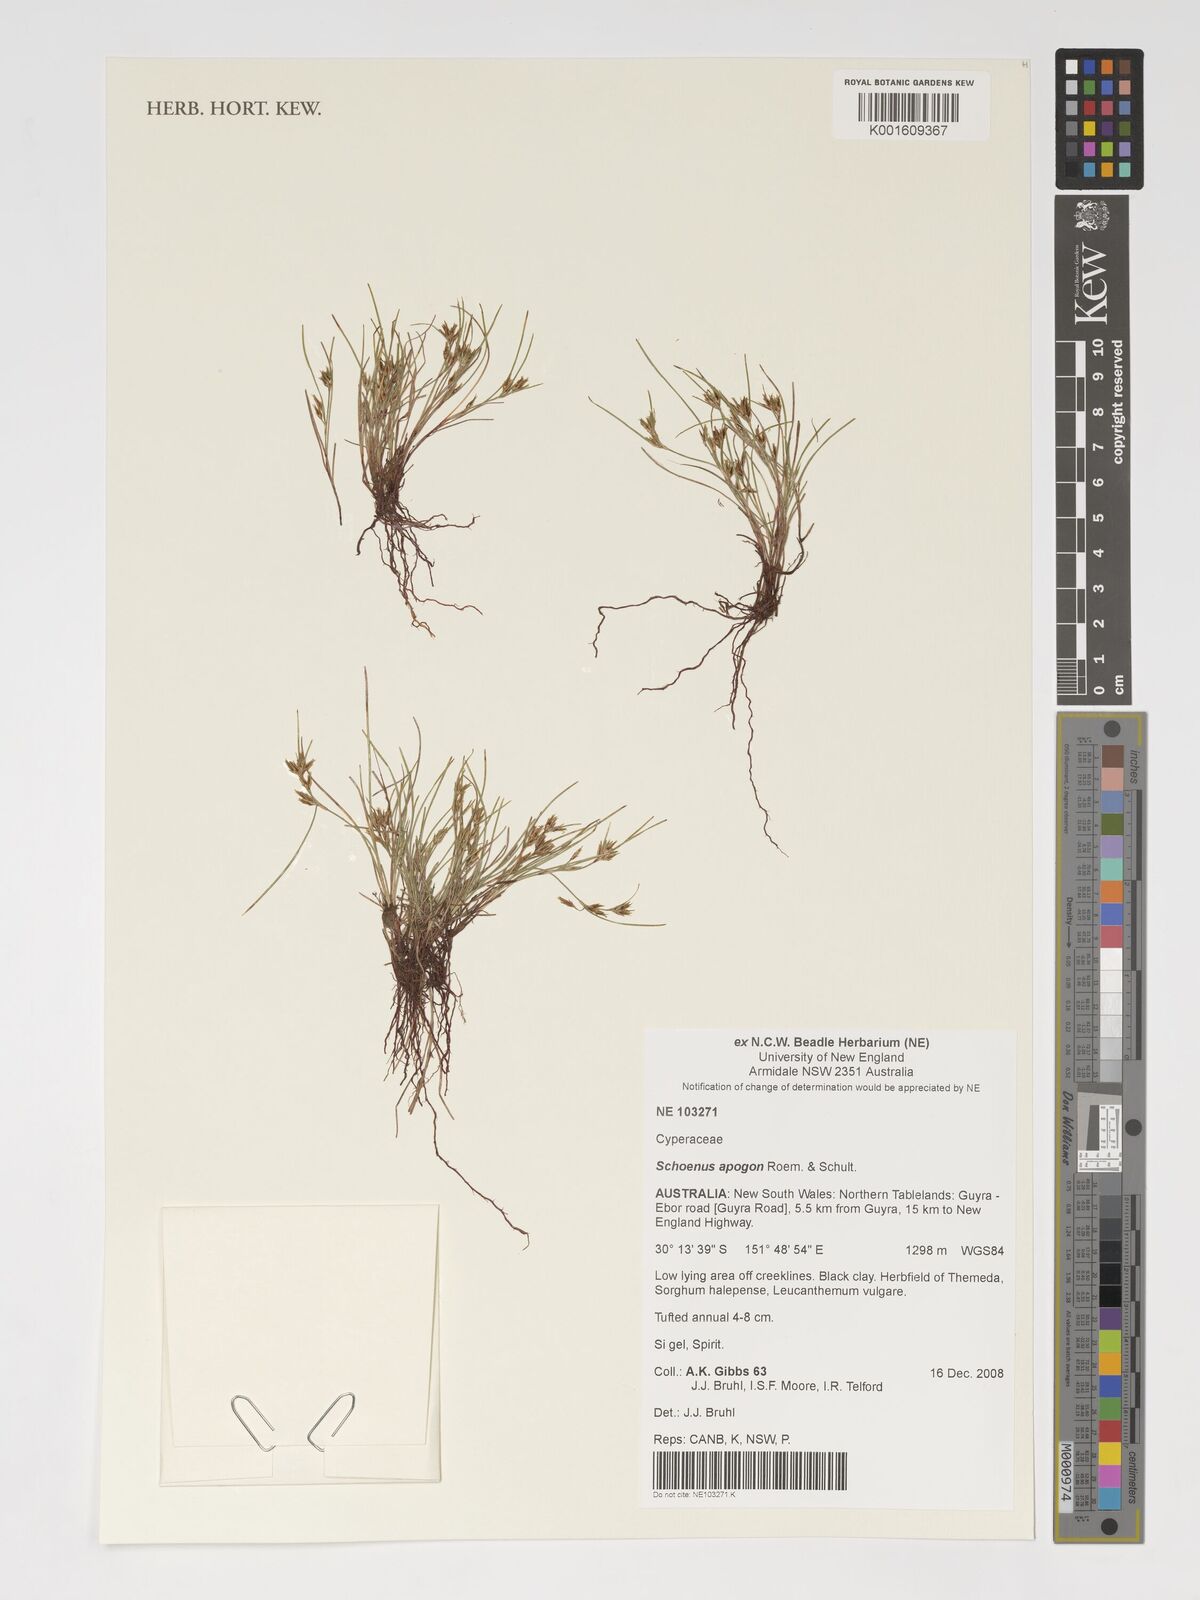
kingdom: Plantae
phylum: Tracheophyta
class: Liliopsida
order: Poales
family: Cyperaceae
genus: Schoenus
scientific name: Schoenus apogon
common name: Smooth bogrush
